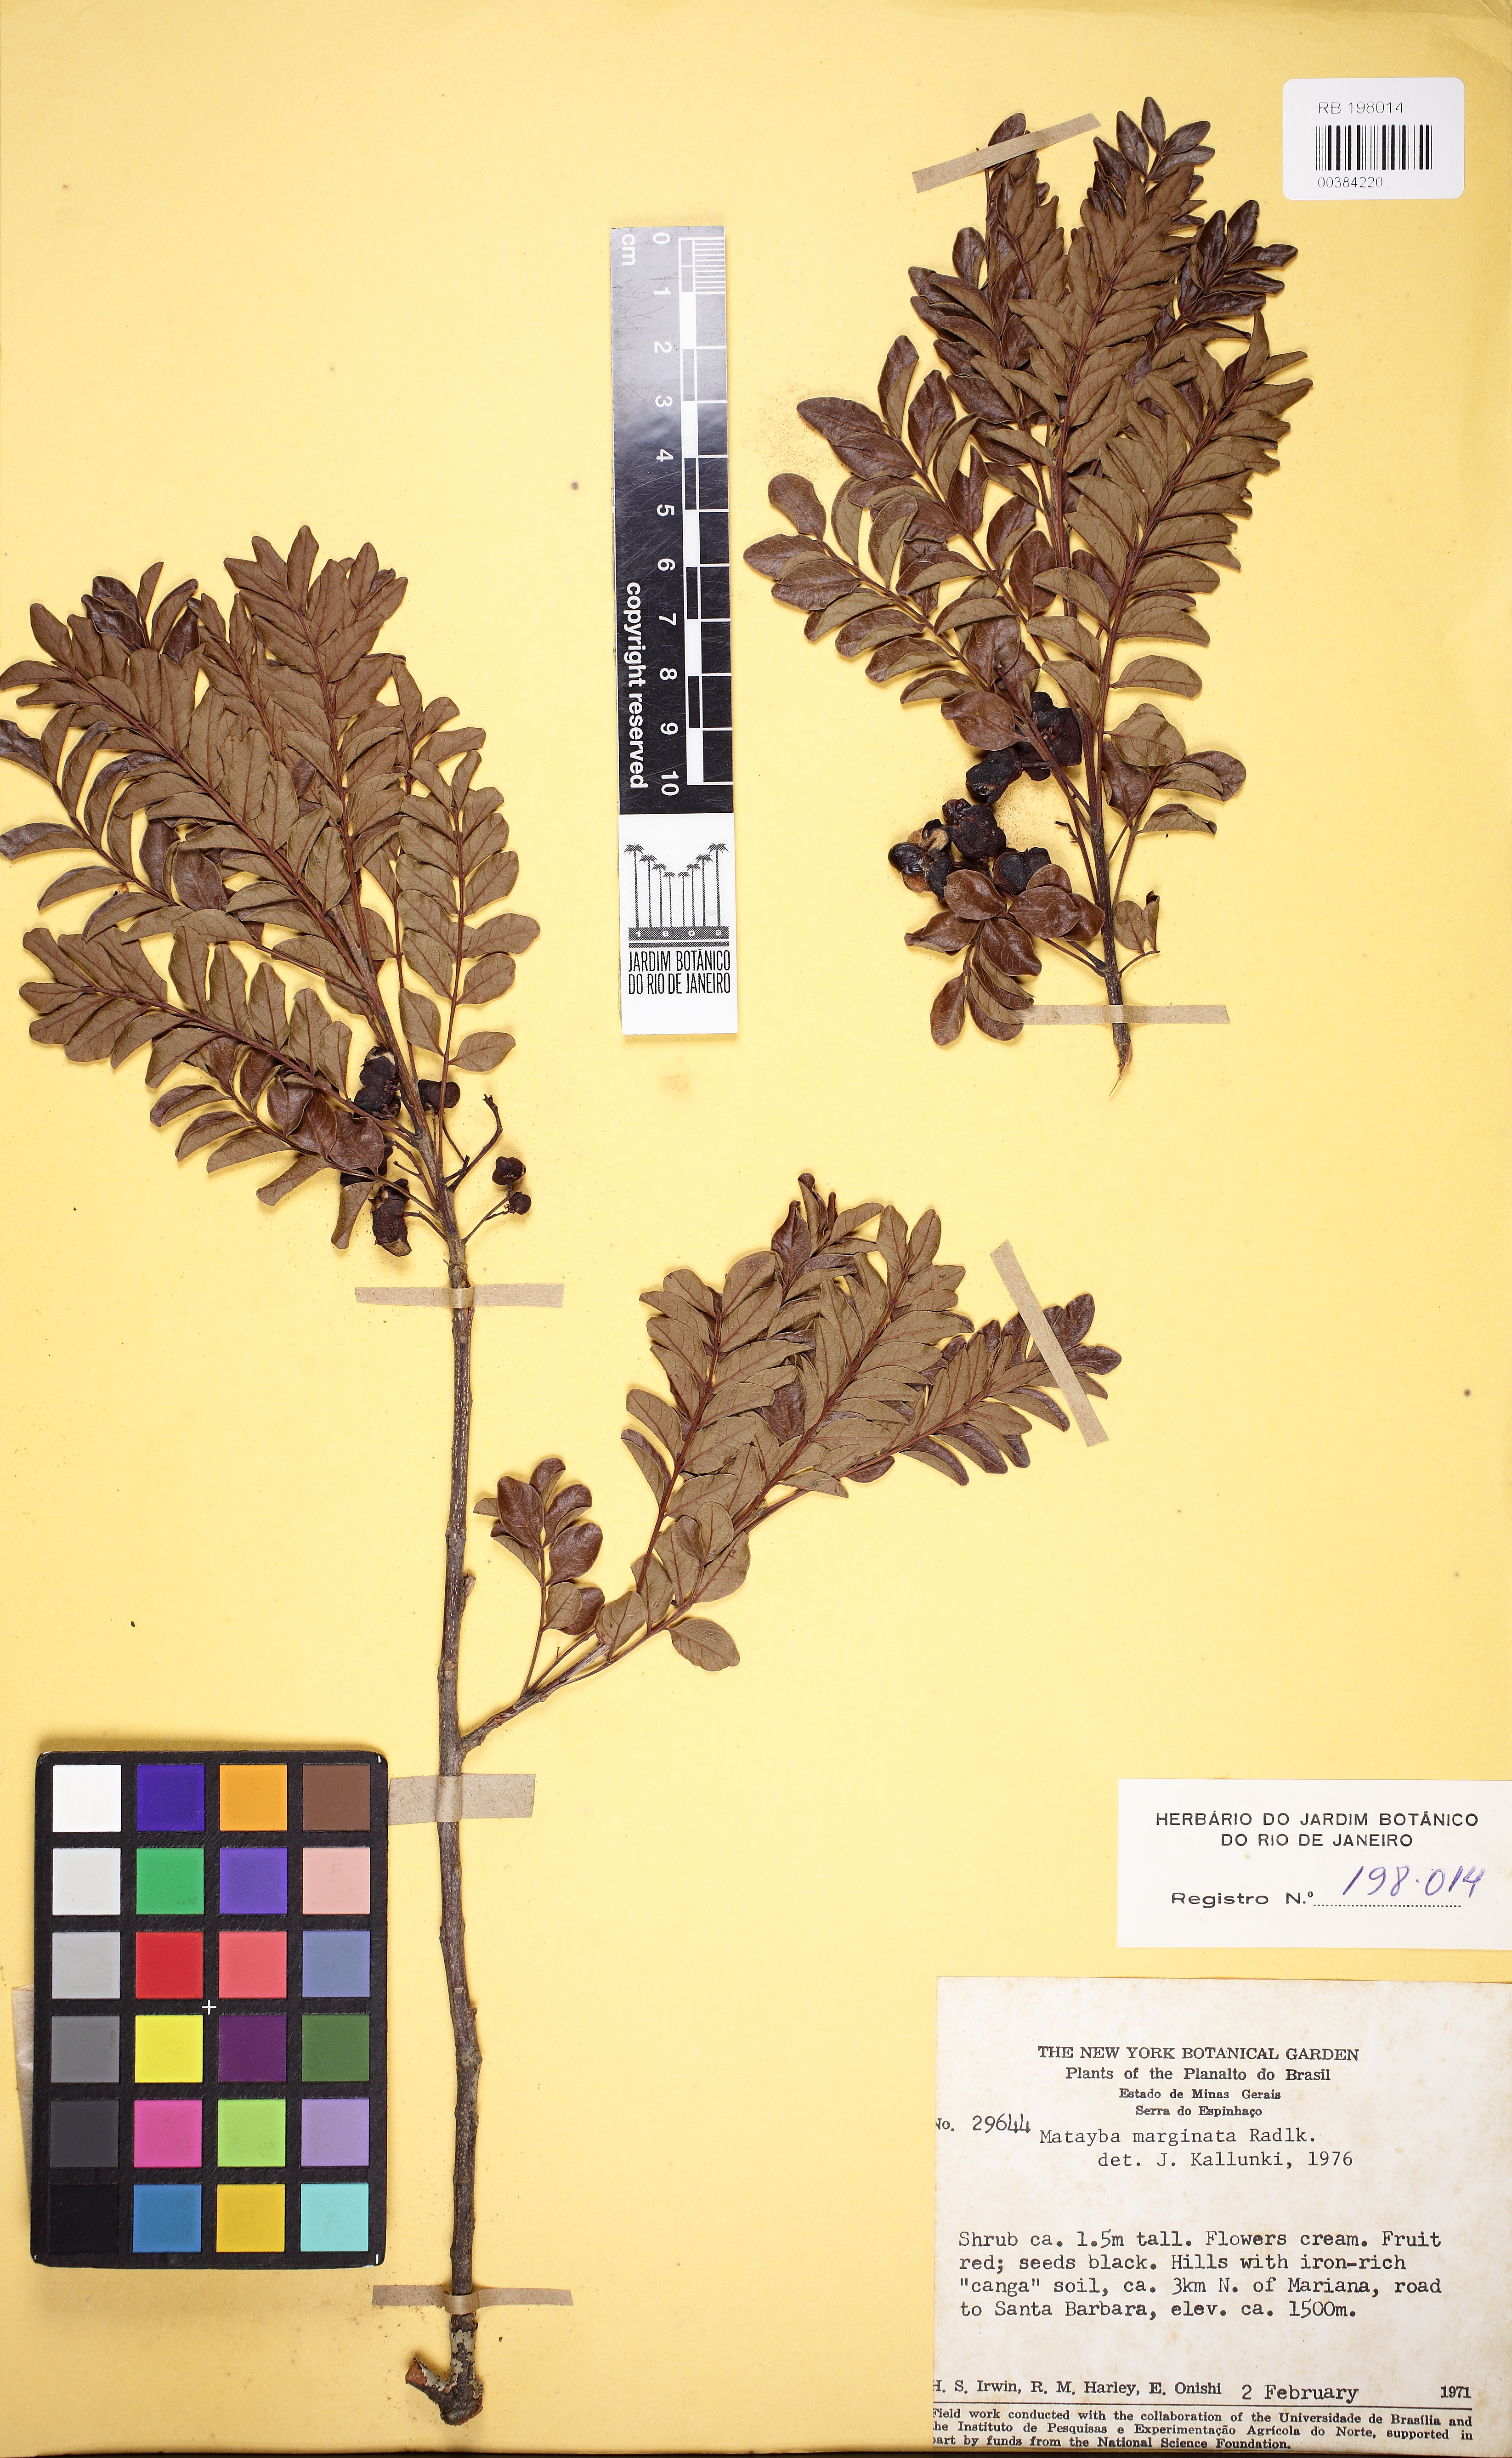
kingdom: Plantae
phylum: Tracheophyta
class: Magnoliopsida
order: Sapindales
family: Sapindaceae
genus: Matayba
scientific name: Matayba marginata
